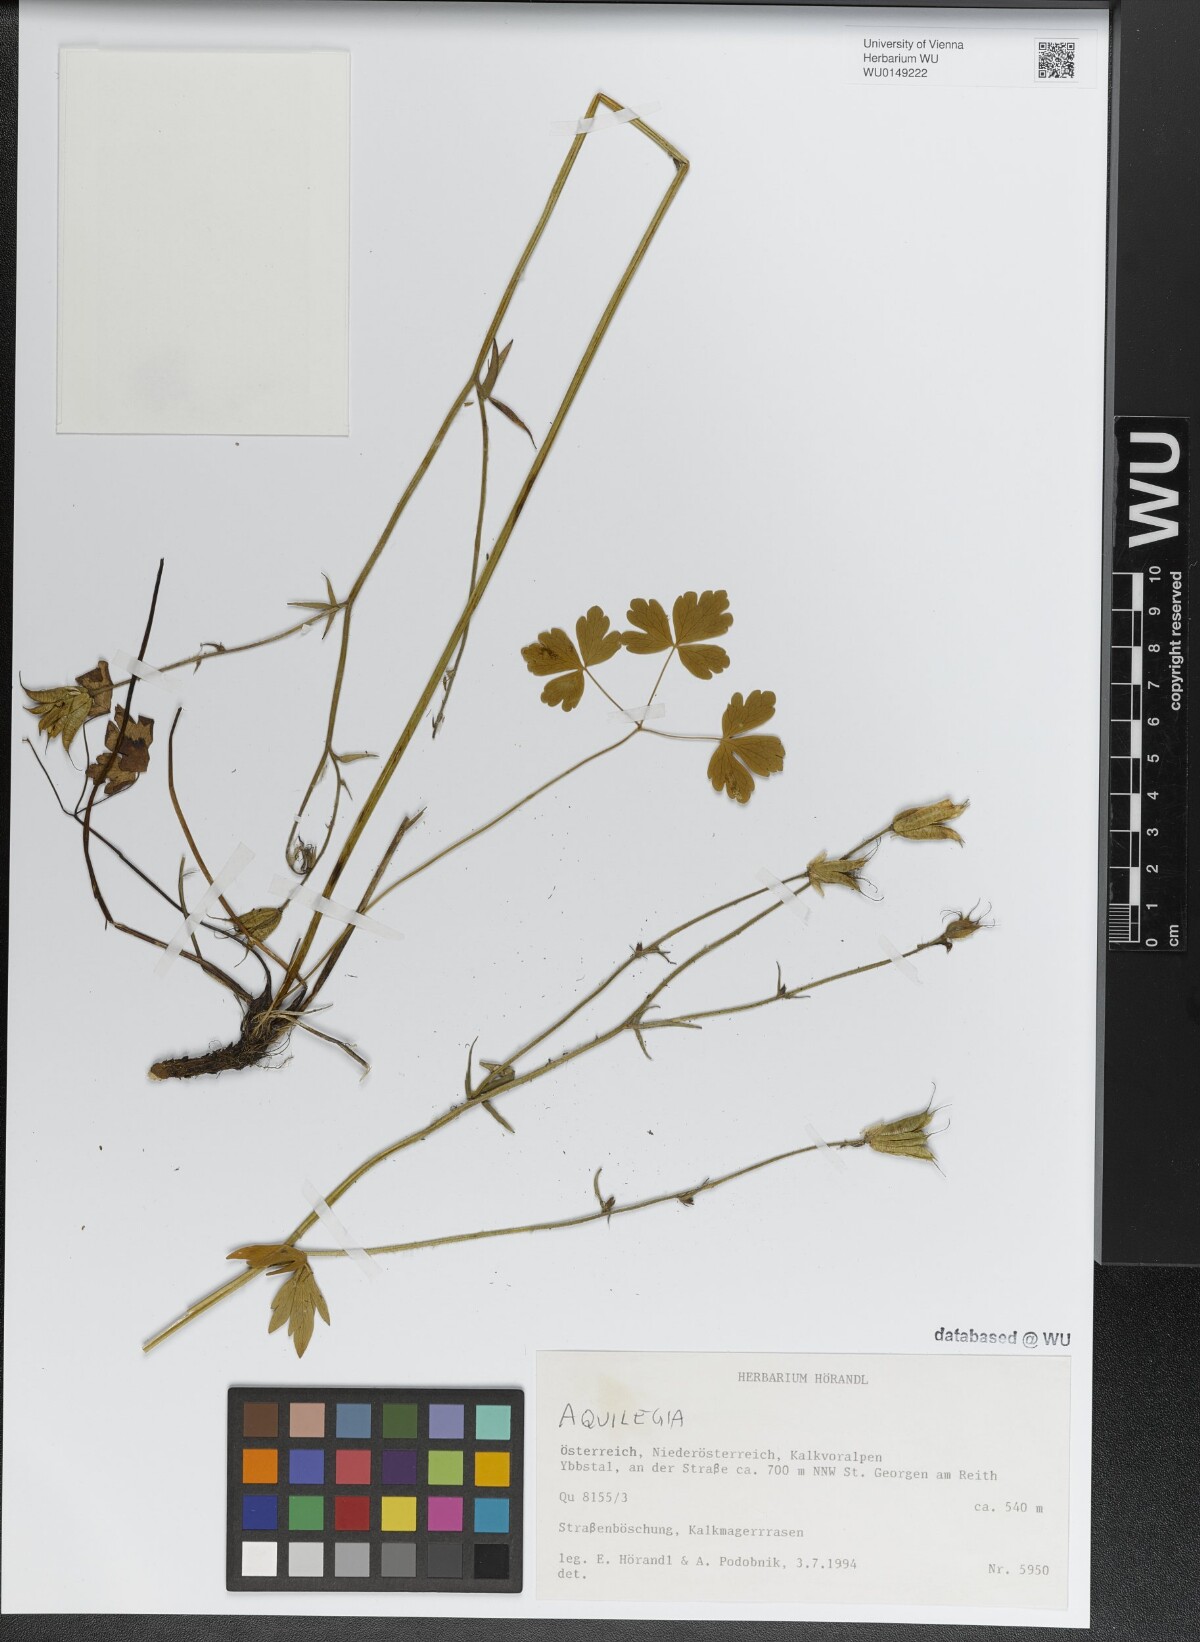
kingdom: Plantae
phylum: Tracheophyta
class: Magnoliopsida
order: Ranunculales
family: Ranunculaceae
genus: Aquilegia
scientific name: Aquilegia
